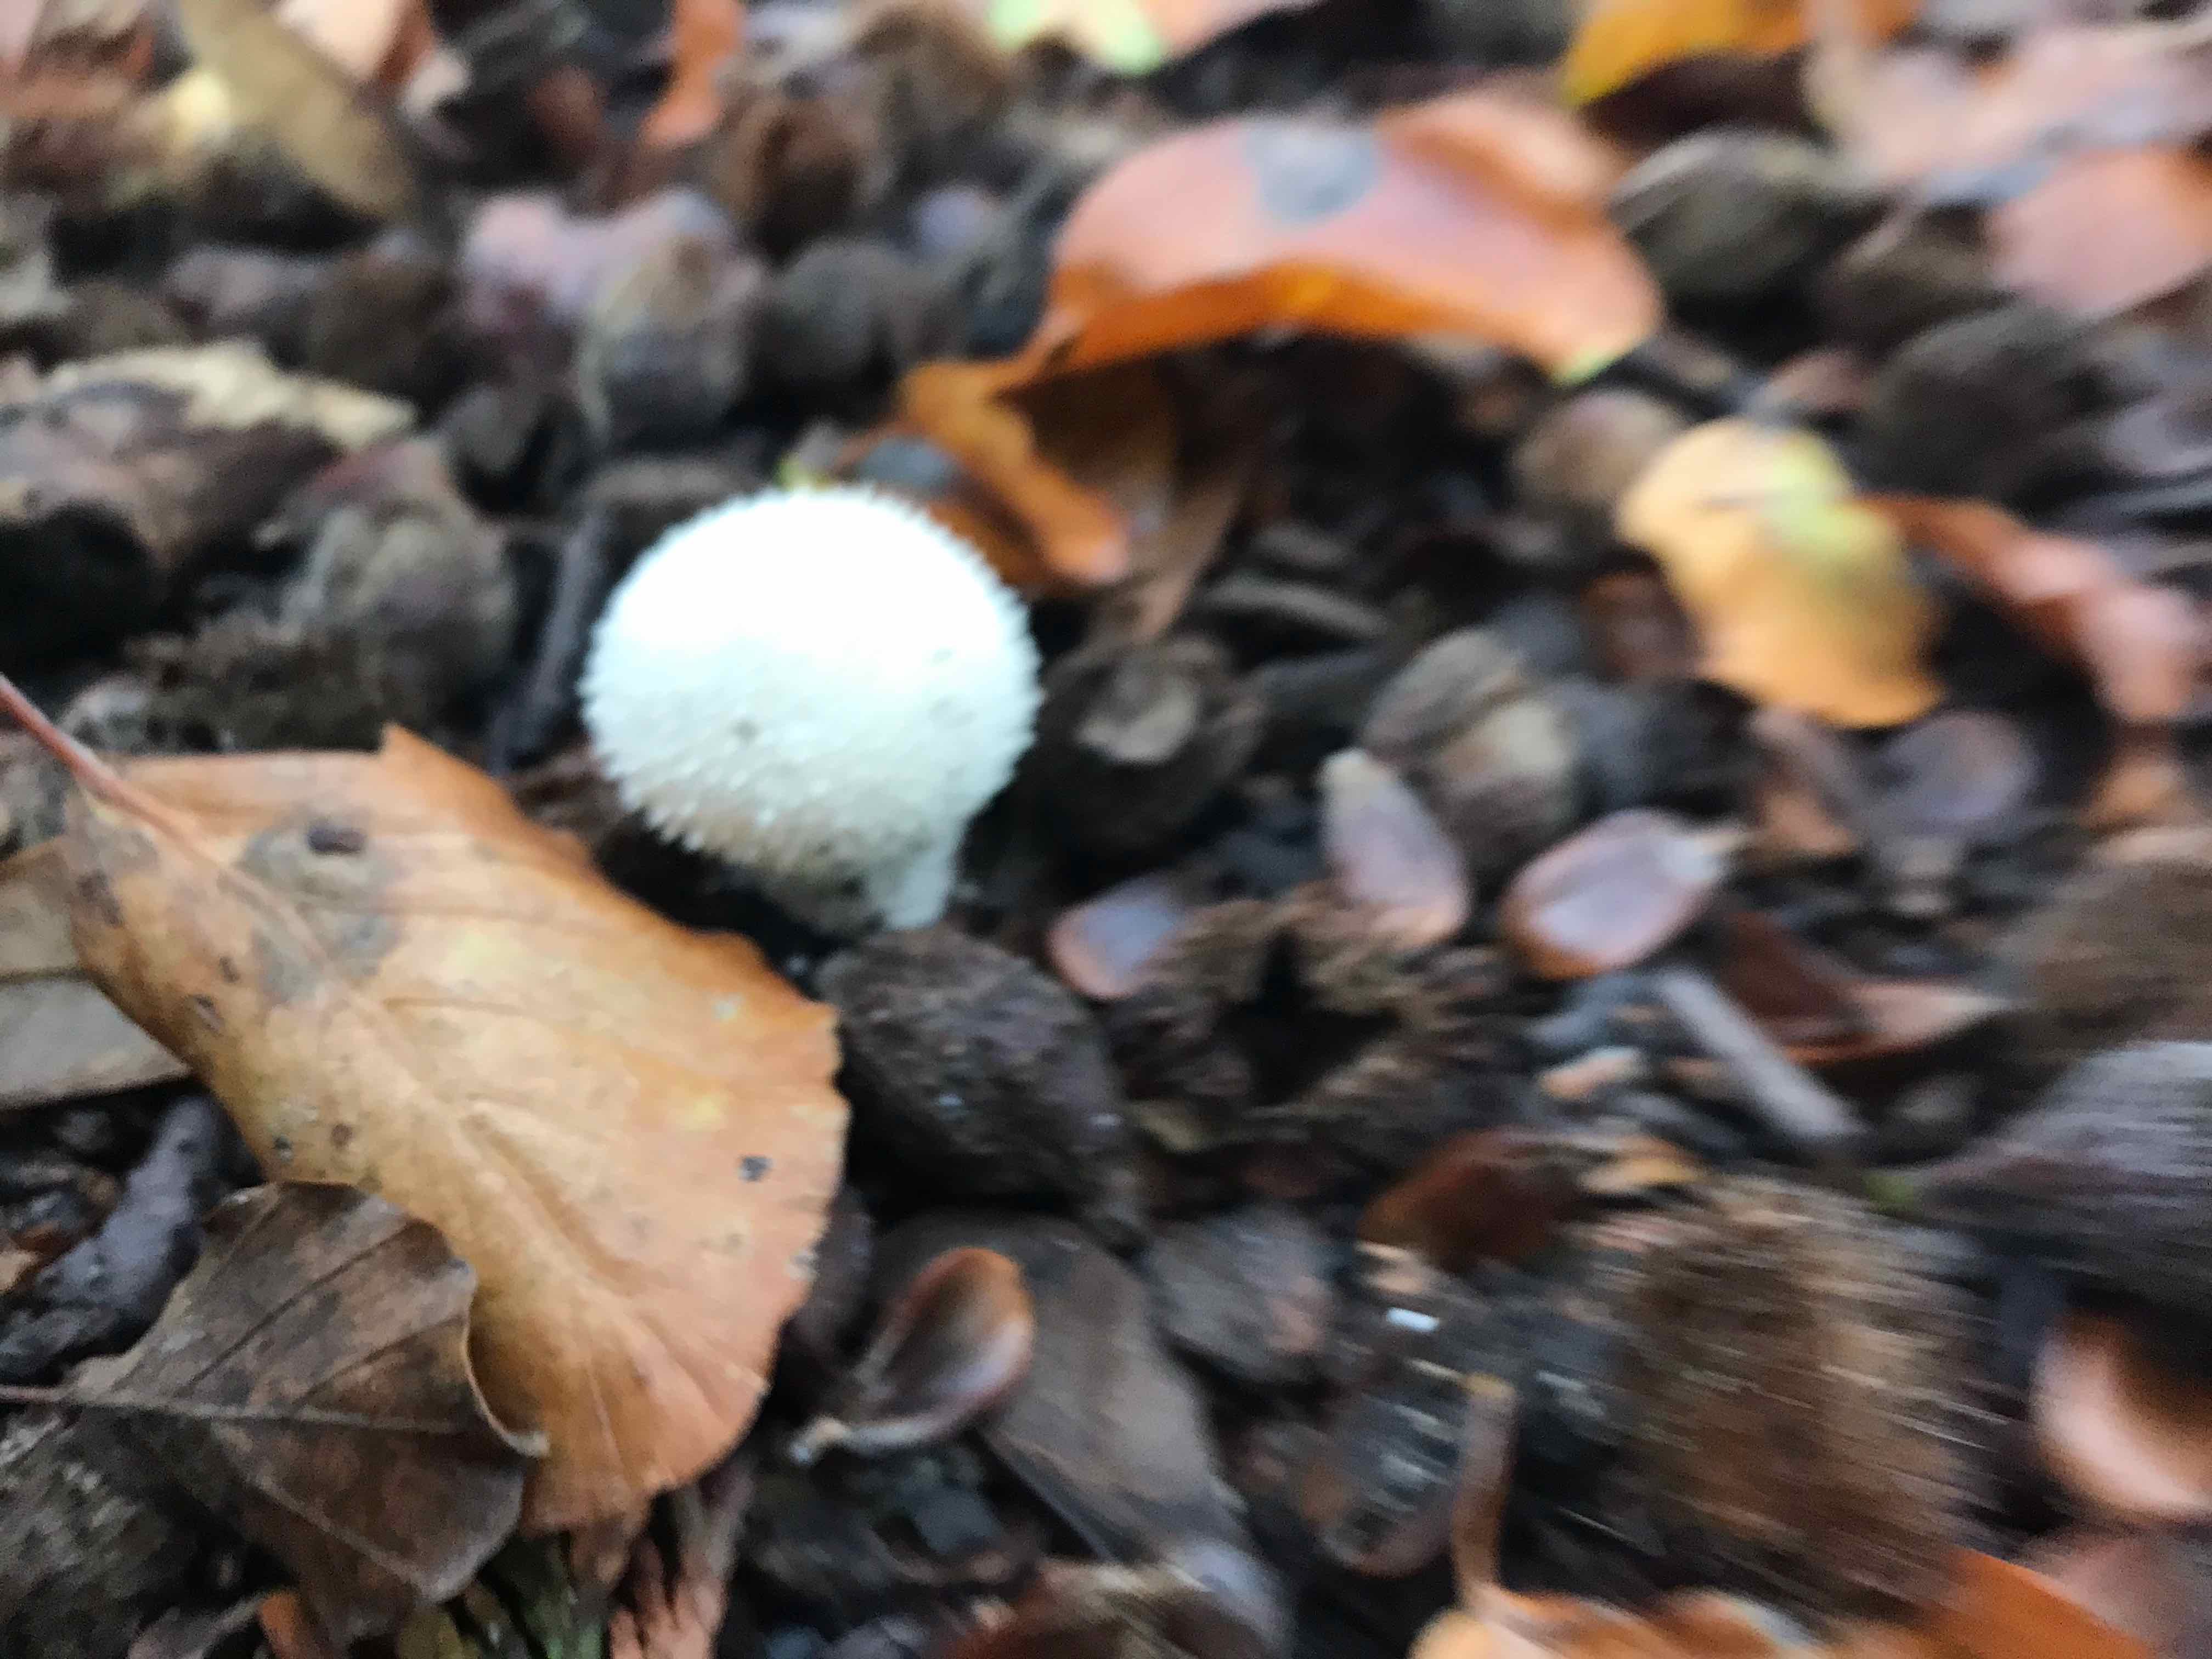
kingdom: Fungi
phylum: Basidiomycota
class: Agaricomycetes
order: Agaricales
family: Lycoperdaceae
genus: Lycoperdon
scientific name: Lycoperdon perlatum
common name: krystal-støvbold
